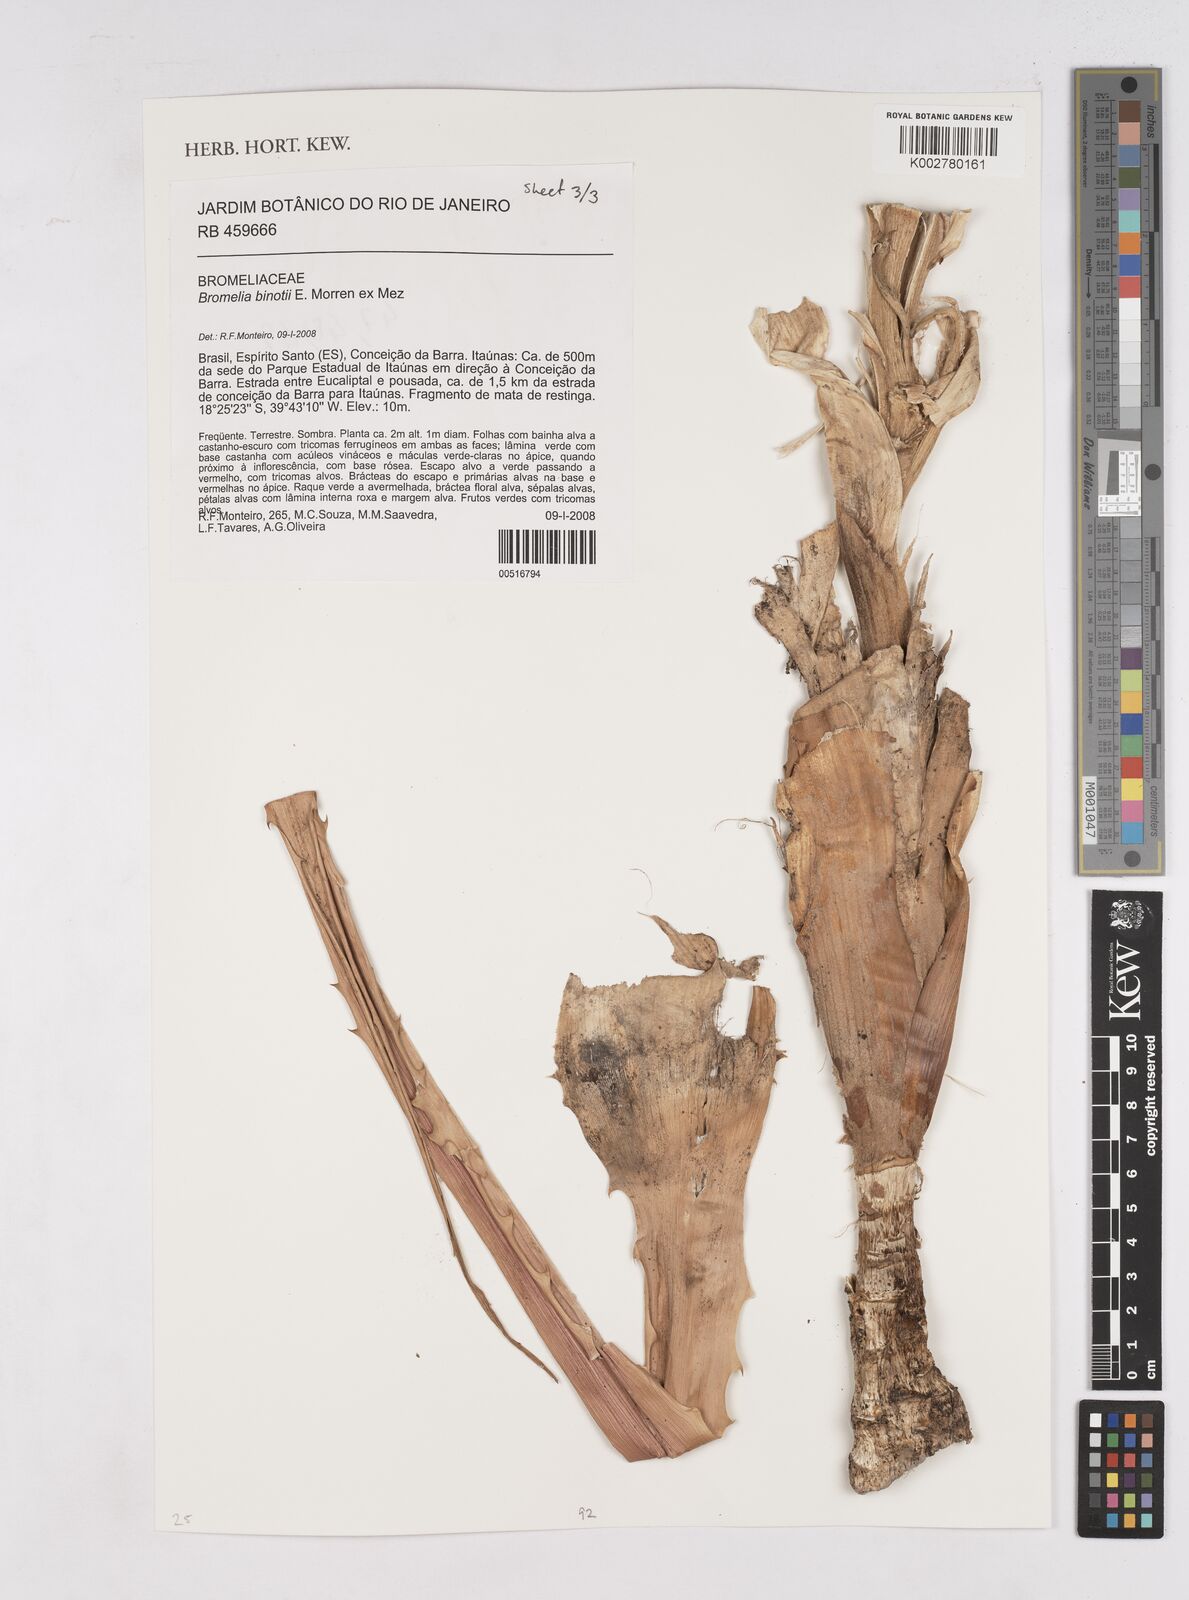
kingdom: Plantae
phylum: Tracheophyta
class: Liliopsida
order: Poales
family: Bromeliaceae
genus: Bromelia
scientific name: Bromelia binotii
